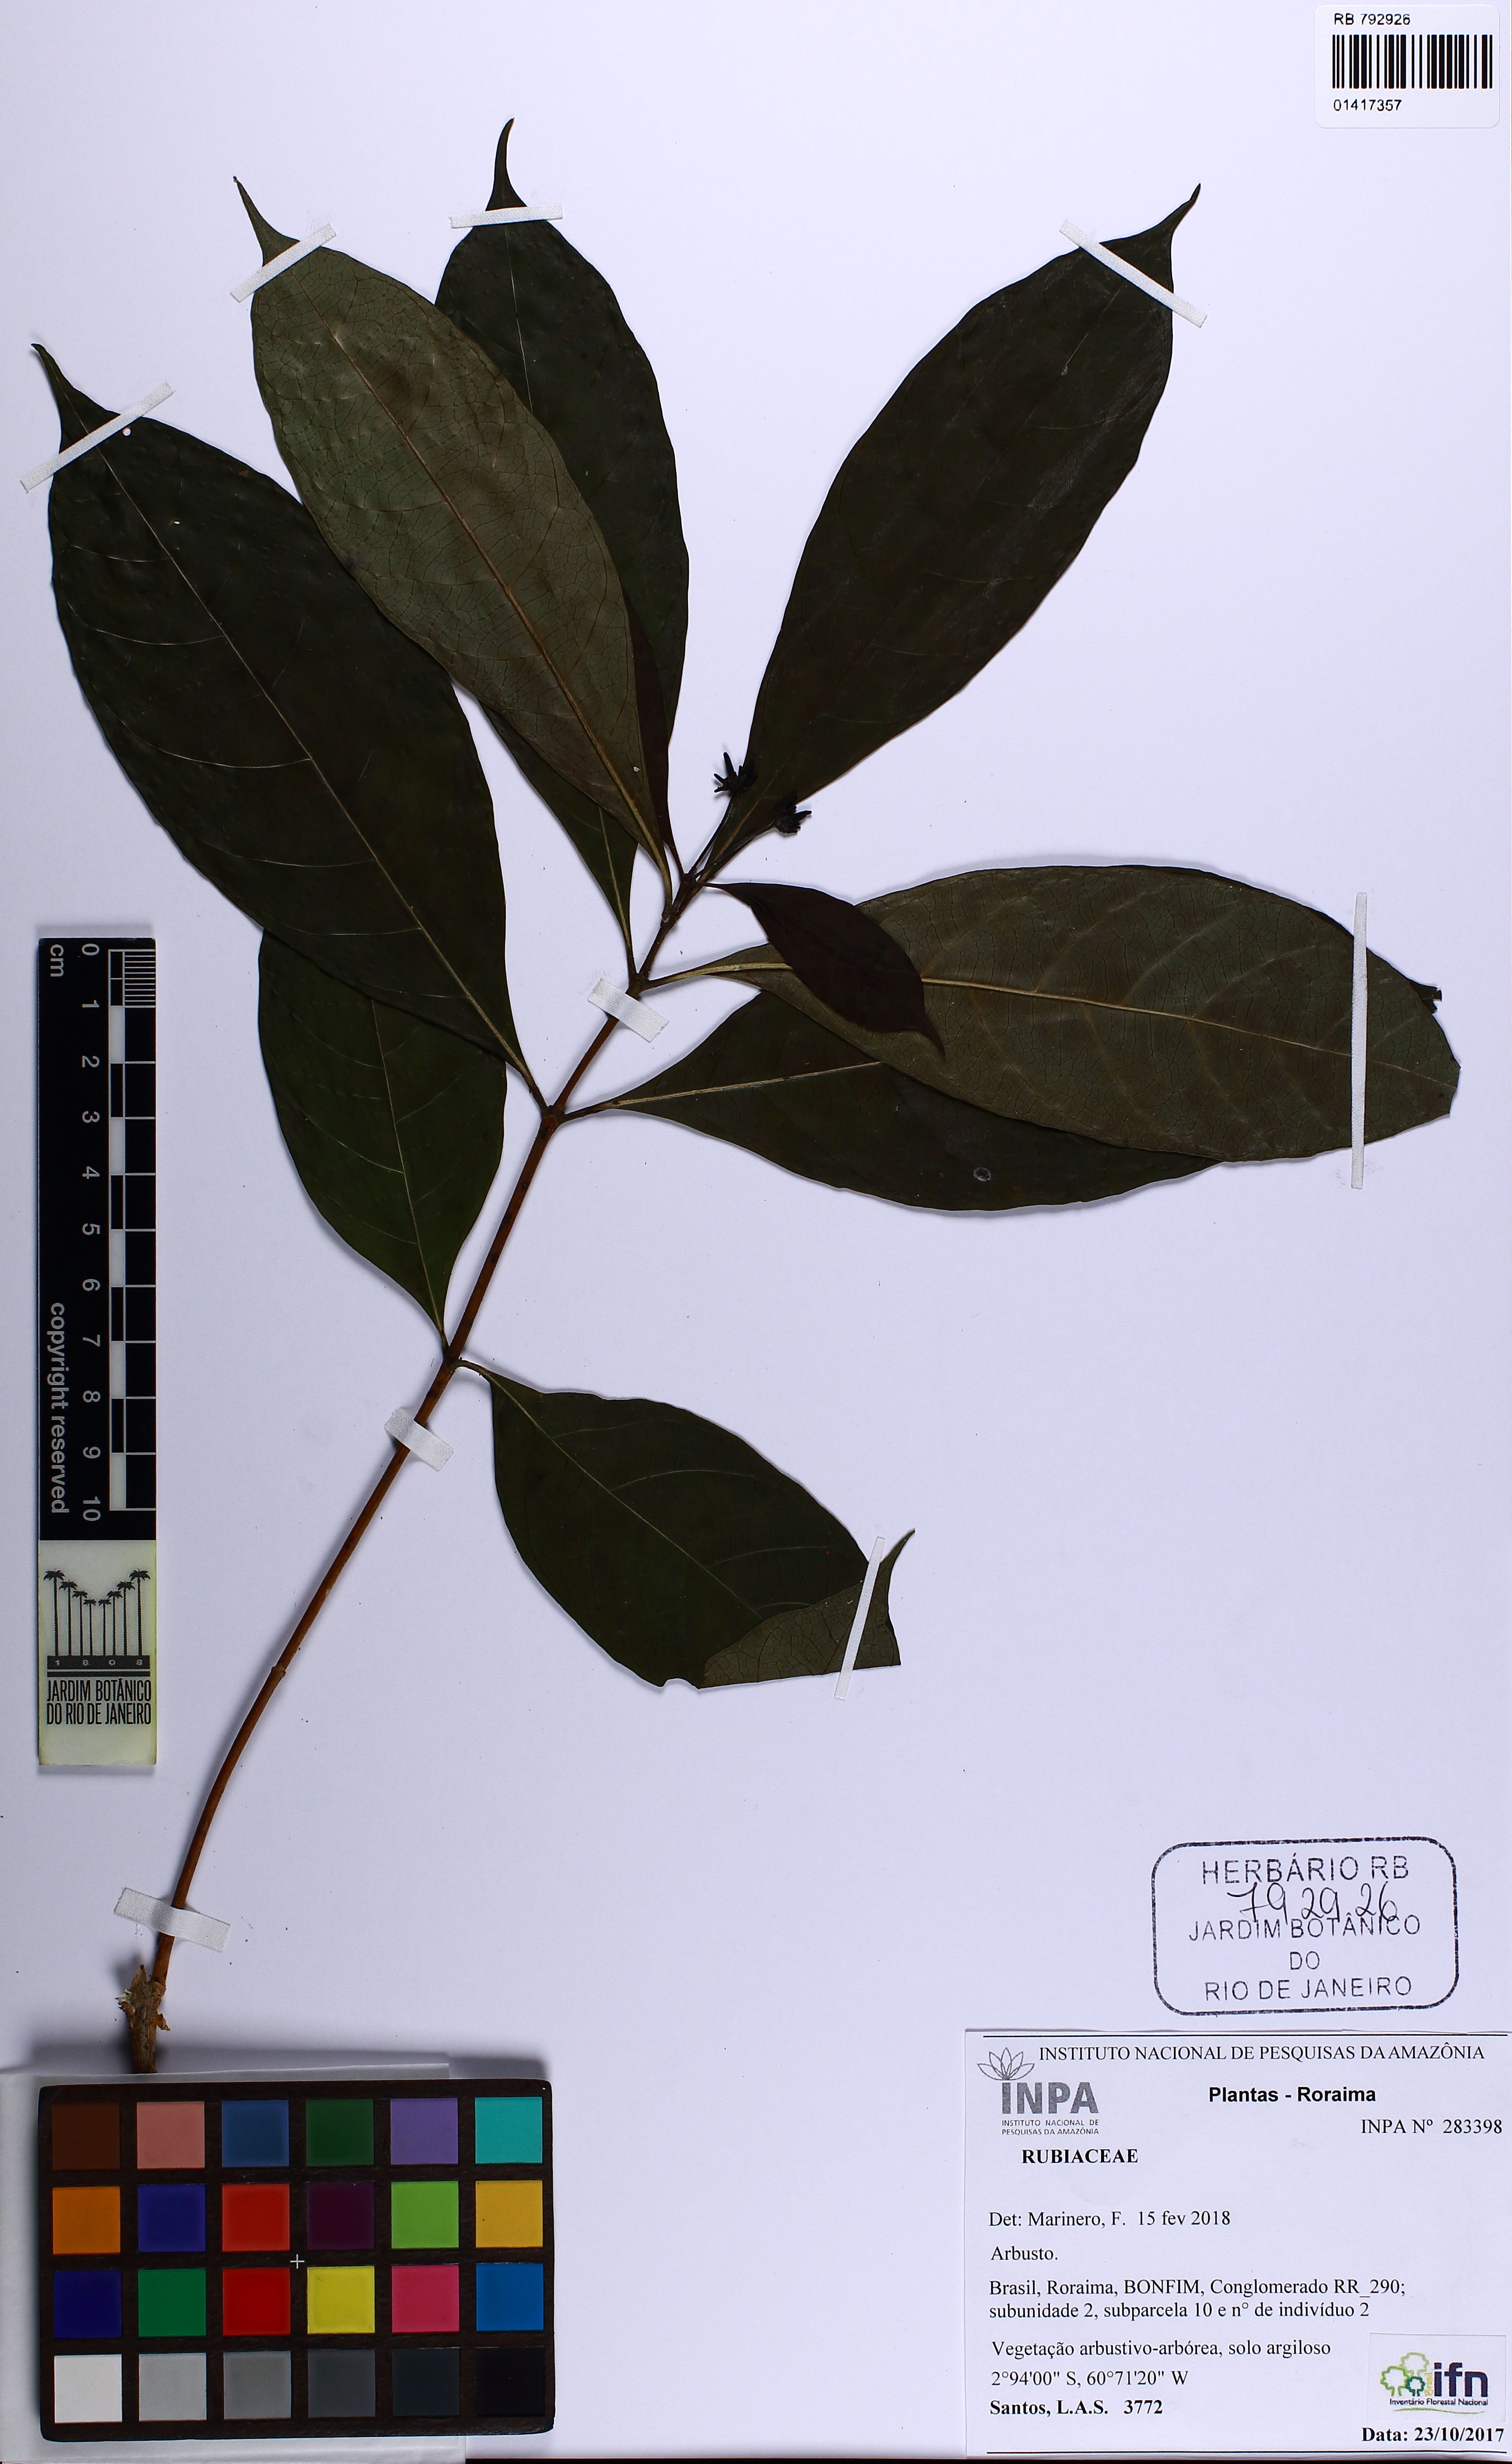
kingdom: Plantae
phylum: Tracheophyta
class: Magnoliopsida
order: Gentianales
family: Rubiaceae
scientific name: Rubiaceae
